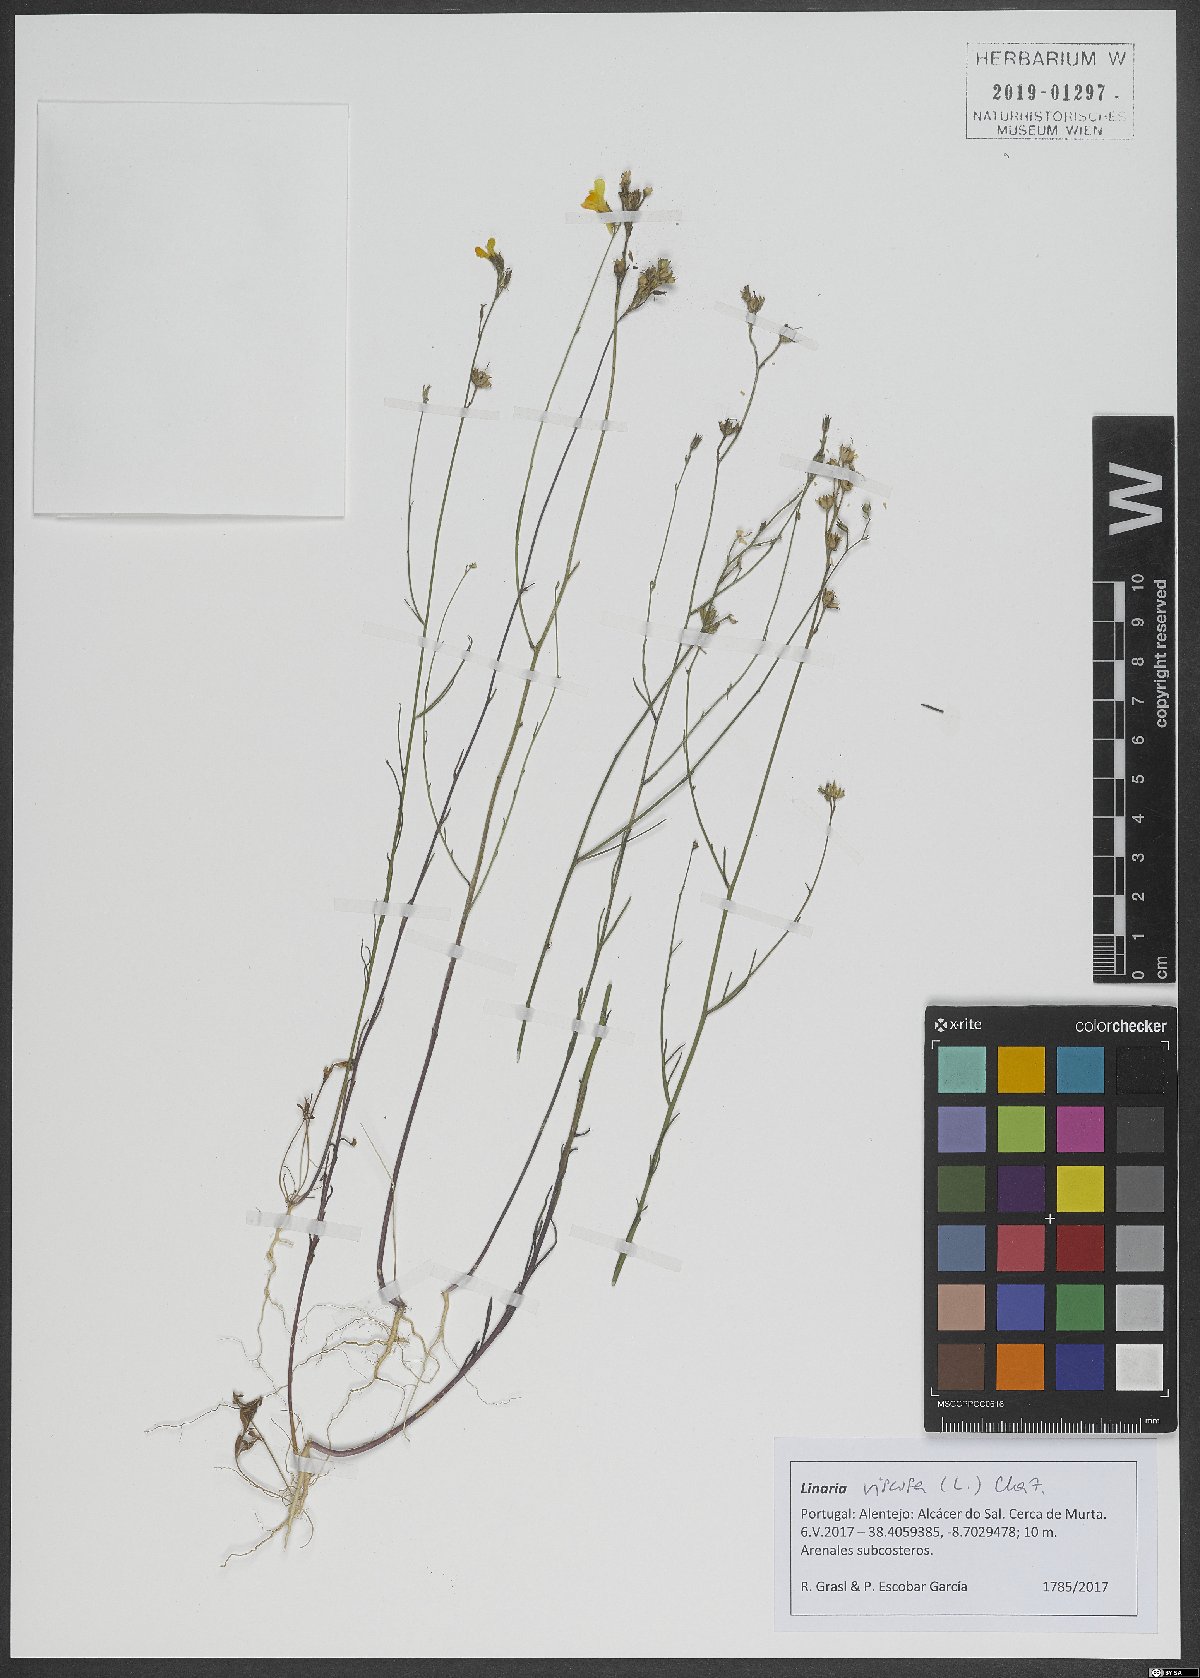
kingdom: Plantae
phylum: Tracheophyta
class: Magnoliopsida
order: Lamiales
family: Plantaginaceae
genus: Linaria
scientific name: Linaria viscosa
